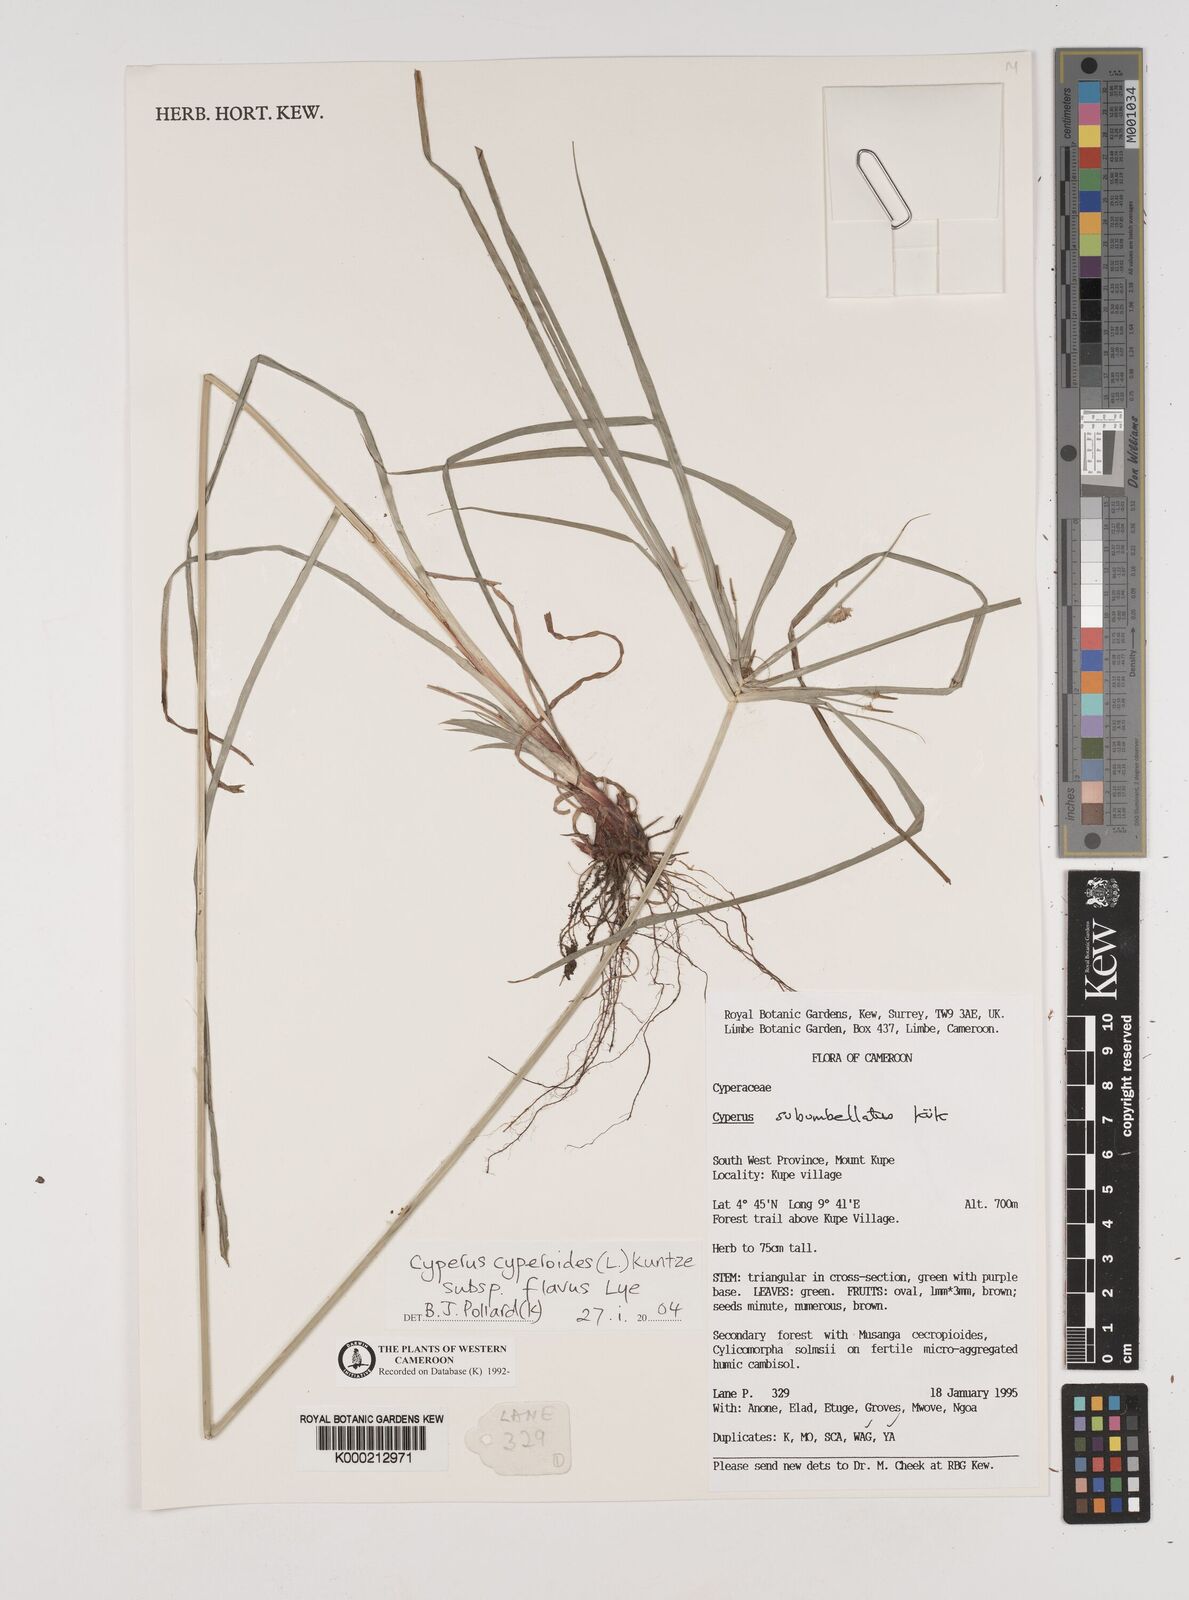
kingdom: Plantae
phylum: Tracheophyta
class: Liliopsida
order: Poales
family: Cyperaceae
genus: Cyperus
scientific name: Cyperus thomensis
